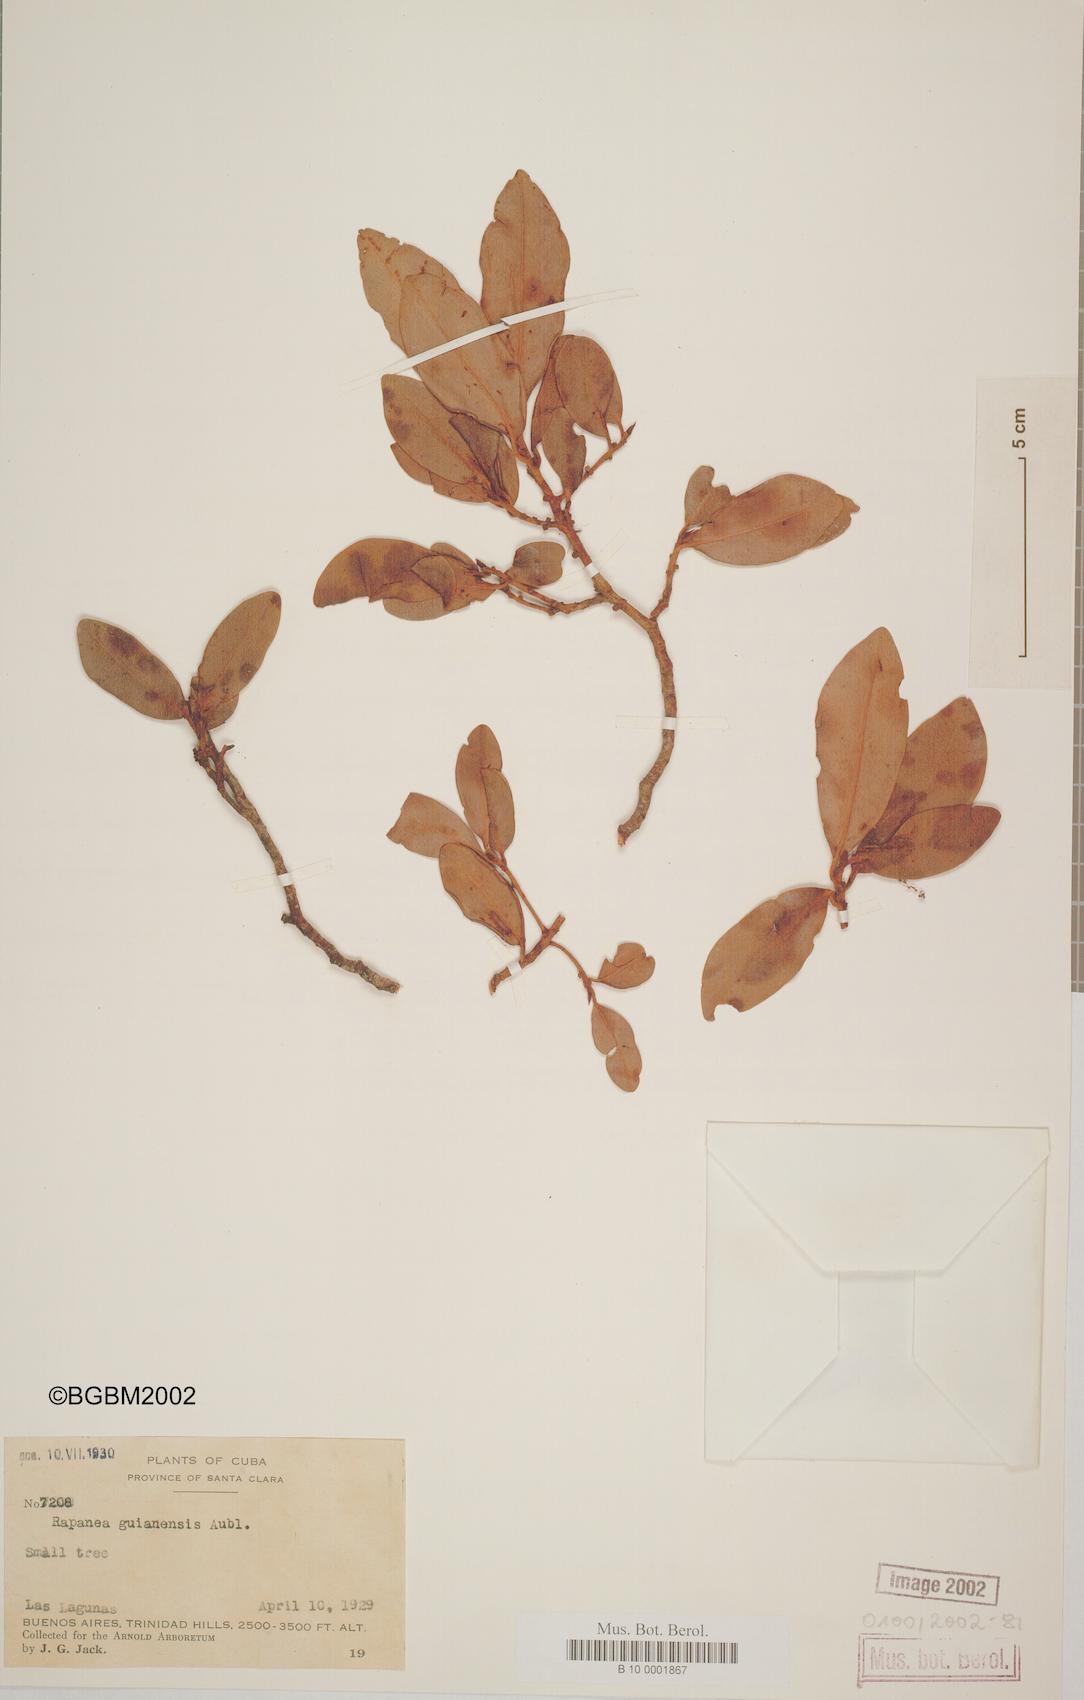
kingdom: Plantae
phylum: Tracheophyta
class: Magnoliopsida
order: Ericales
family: Primulaceae
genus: Myrsine
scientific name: Myrsine guianensis
